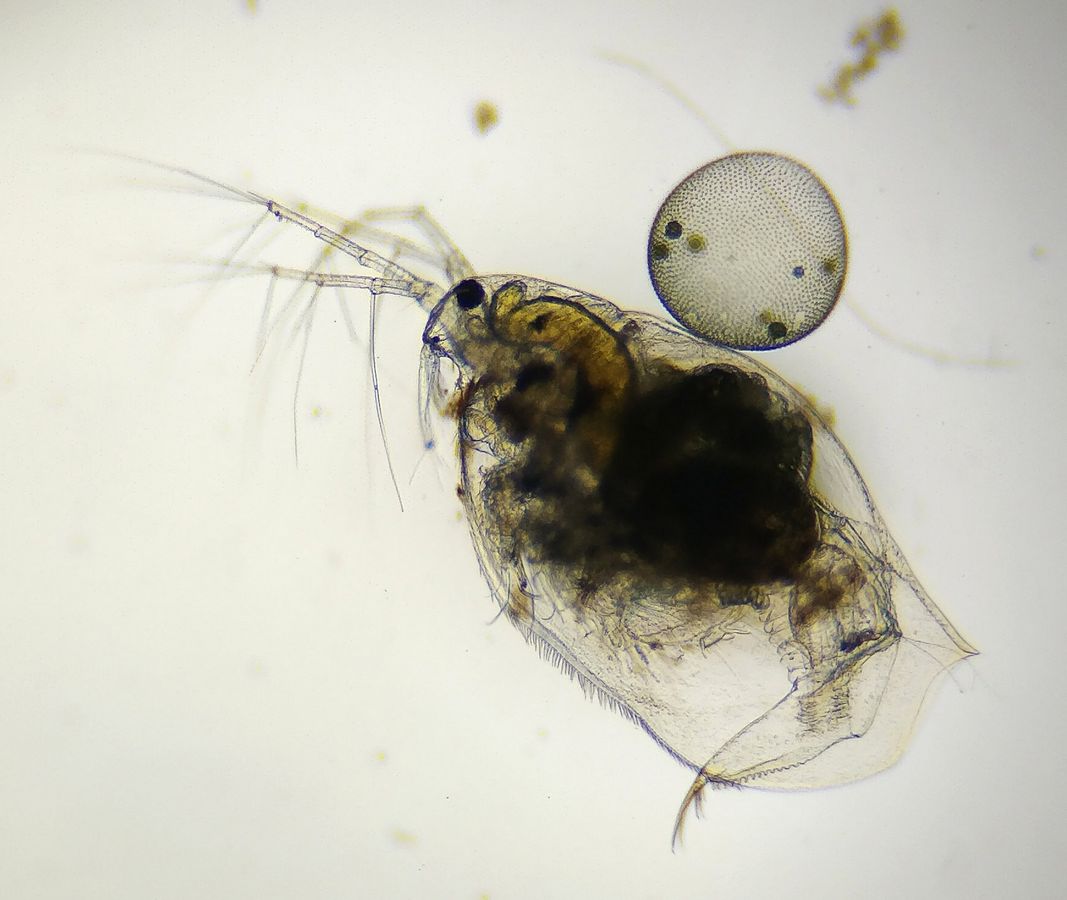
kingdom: Animalia
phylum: Arthropoda
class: Branchiopoda
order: Diplostraca
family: Ophryoxidae
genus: Ophryoxus
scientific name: Ophryoxus gracilis
